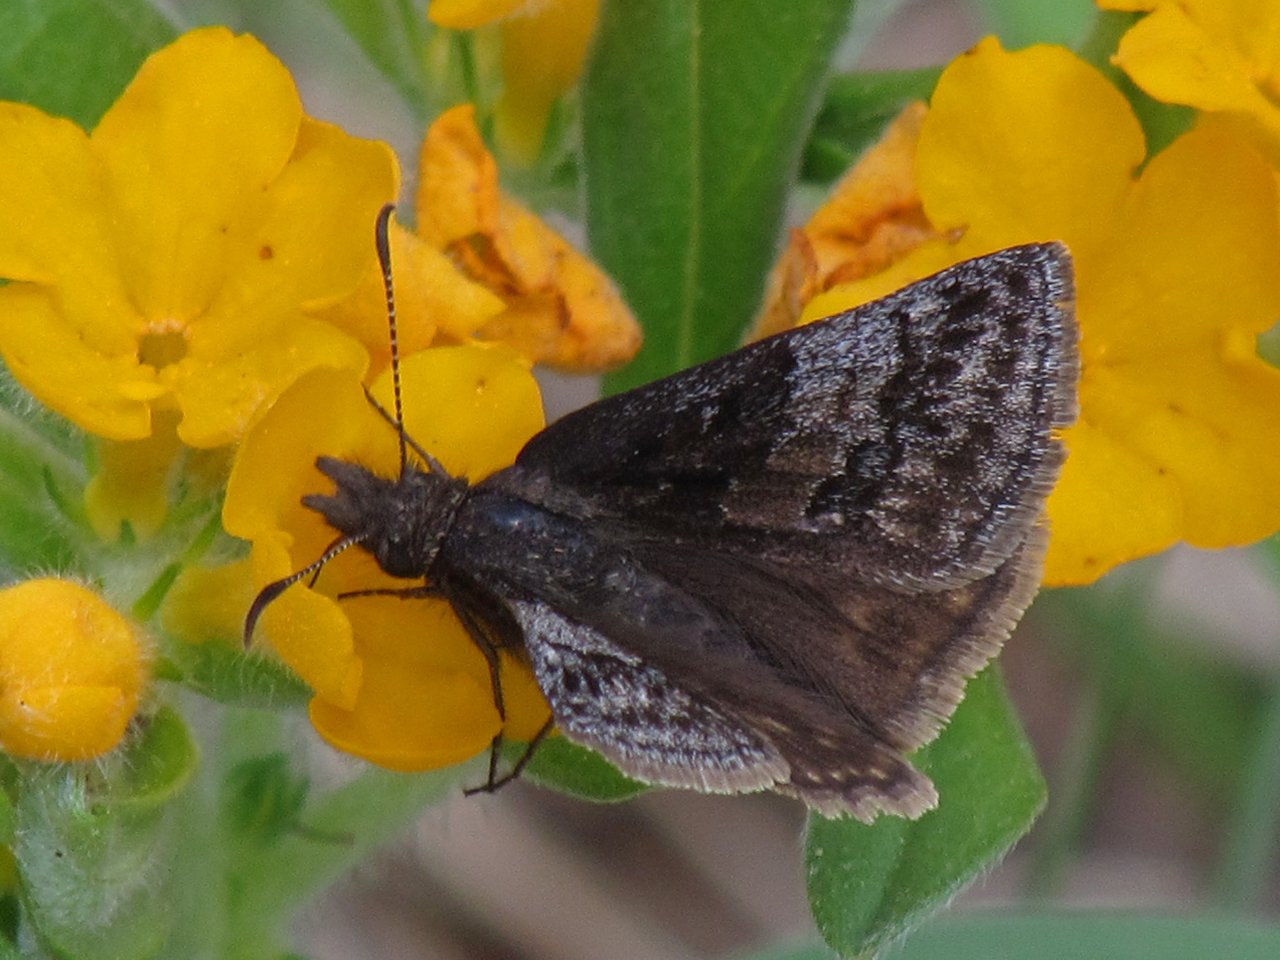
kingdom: Animalia
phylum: Arthropoda
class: Insecta
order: Lepidoptera
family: Hesperiidae
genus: Erynnis
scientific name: Erynnis icelus
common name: Dreamy Duskywing
